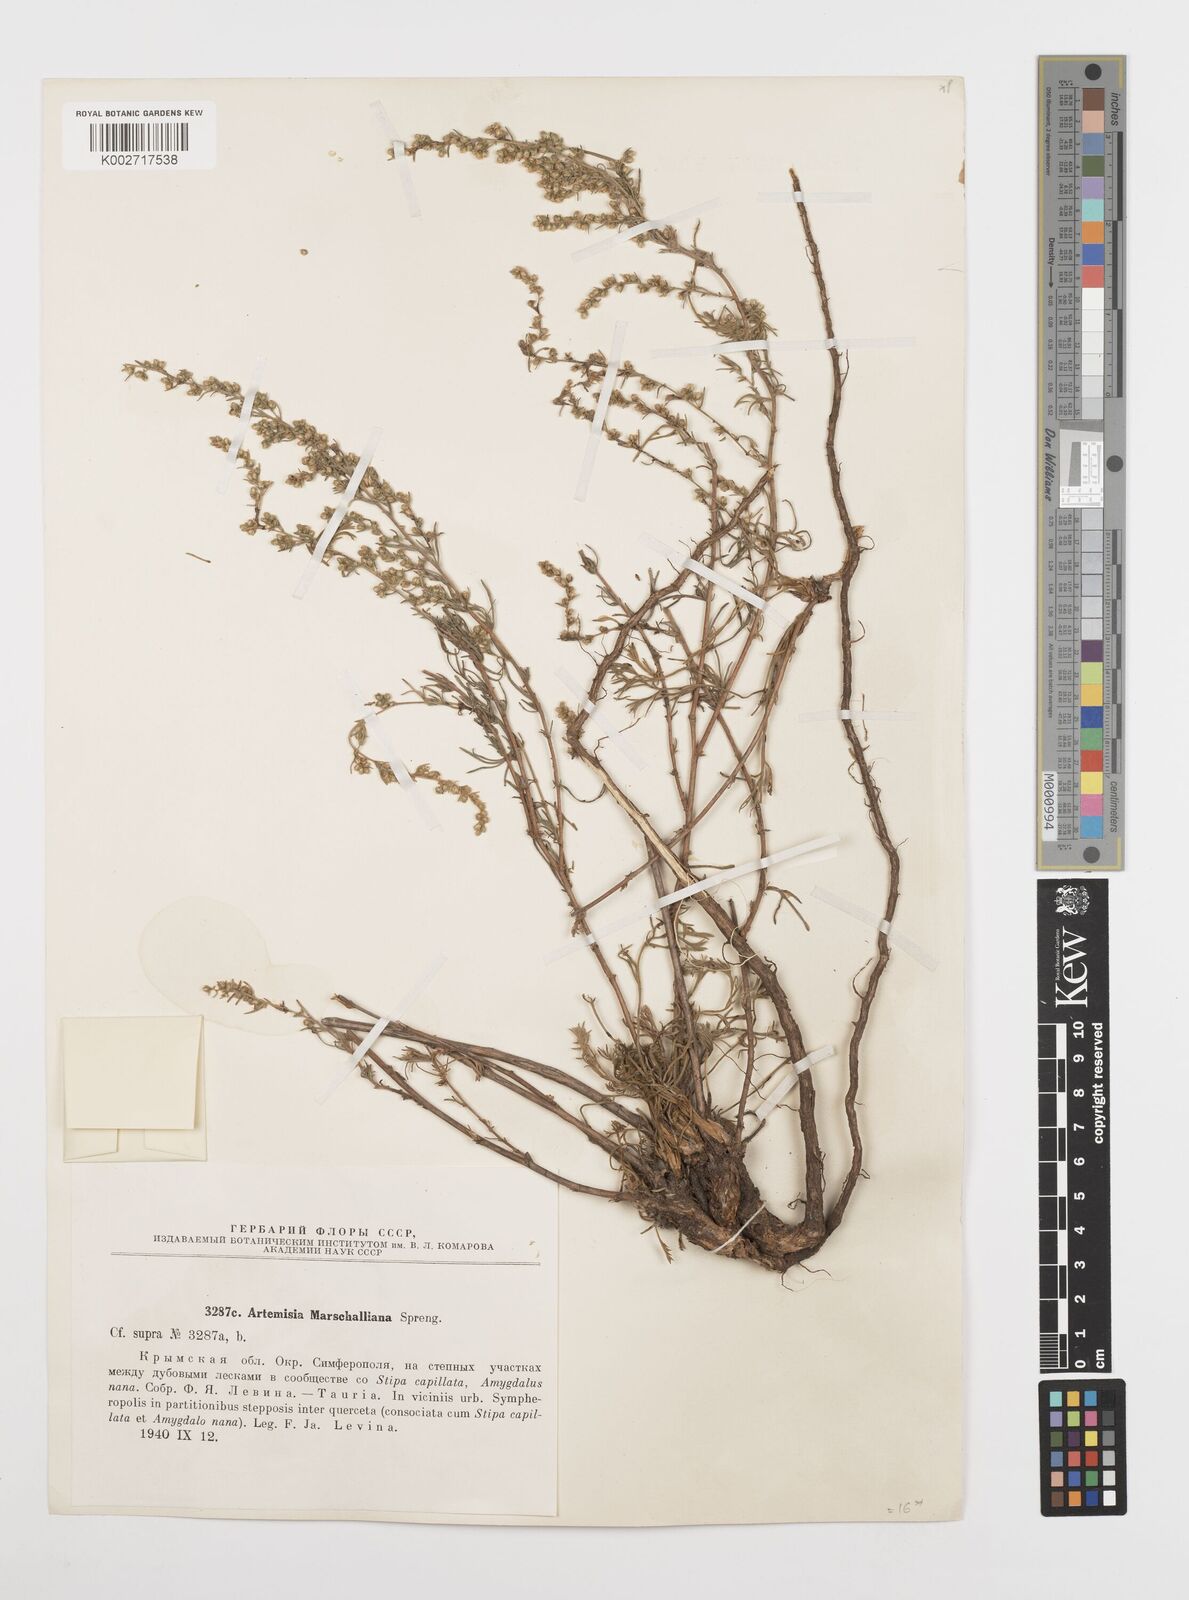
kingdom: Plantae
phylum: Tracheophyta
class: Magnoliopsida
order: Asterales
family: Asteraceae
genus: Artemisia
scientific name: Artemisia marschalliana
